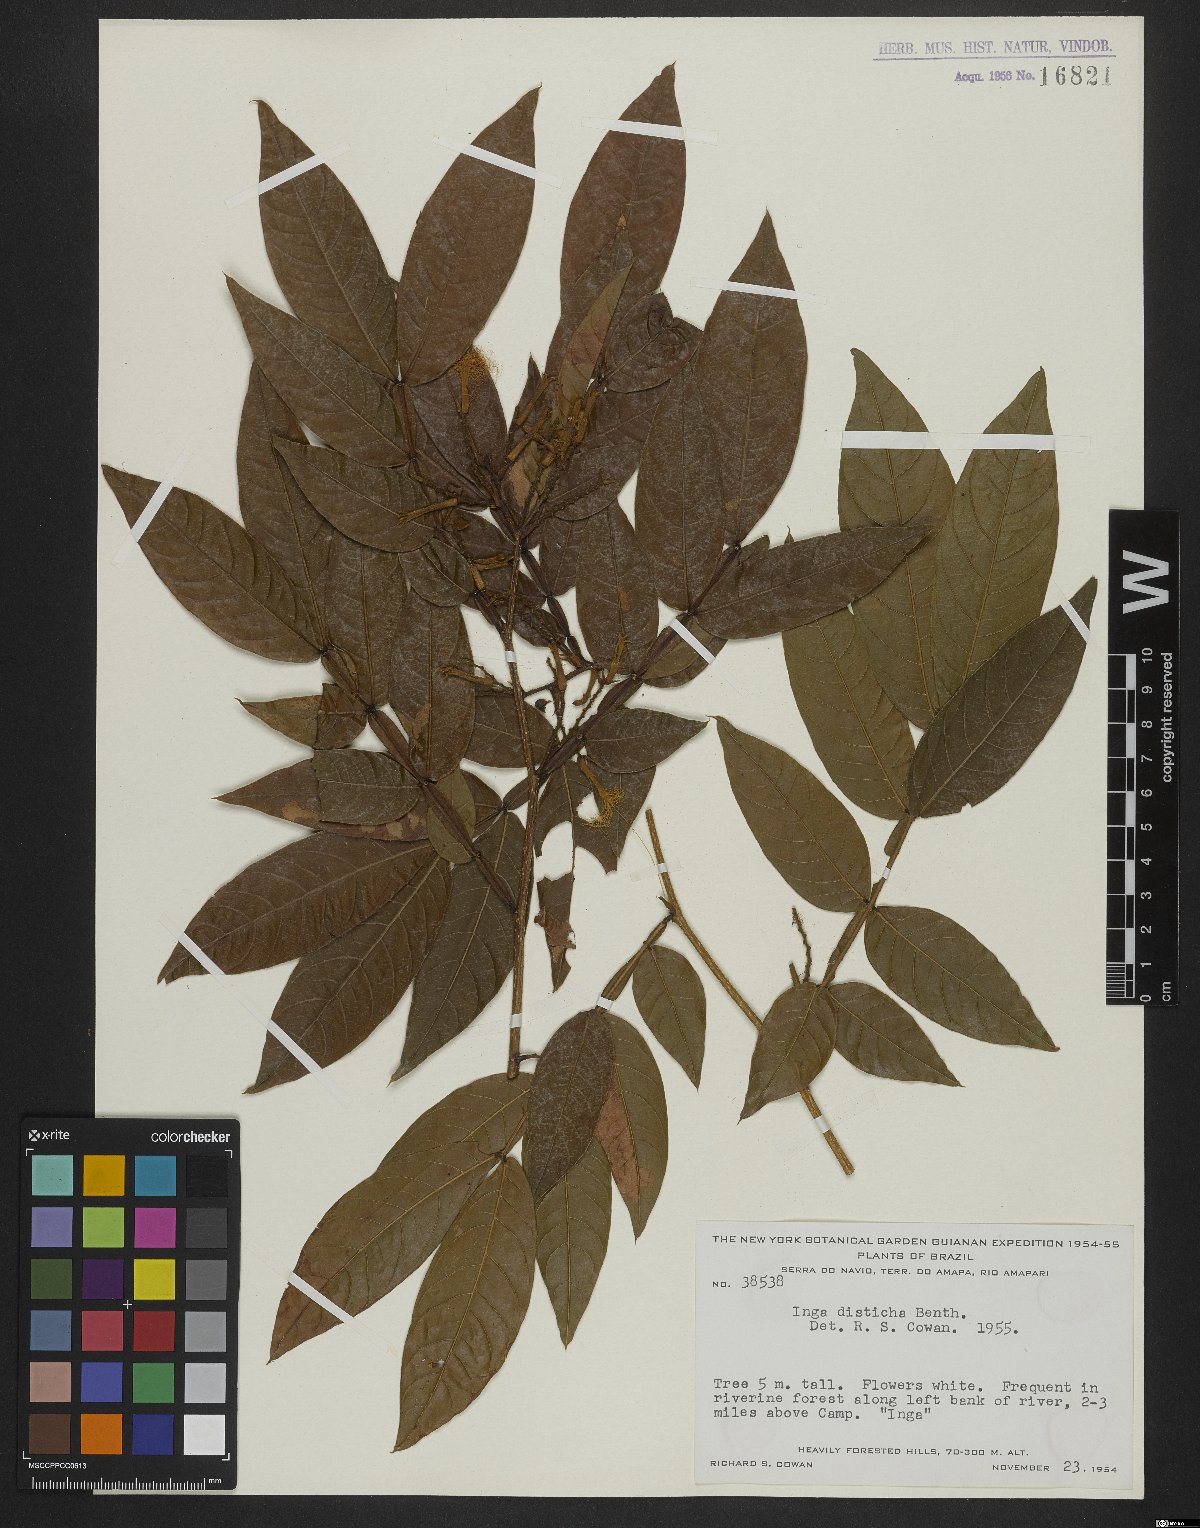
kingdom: Plantae
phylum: Tracheophyta
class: Magnoliopsida
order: Fabales
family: Fabaceae
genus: Inga
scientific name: Inga disticha
